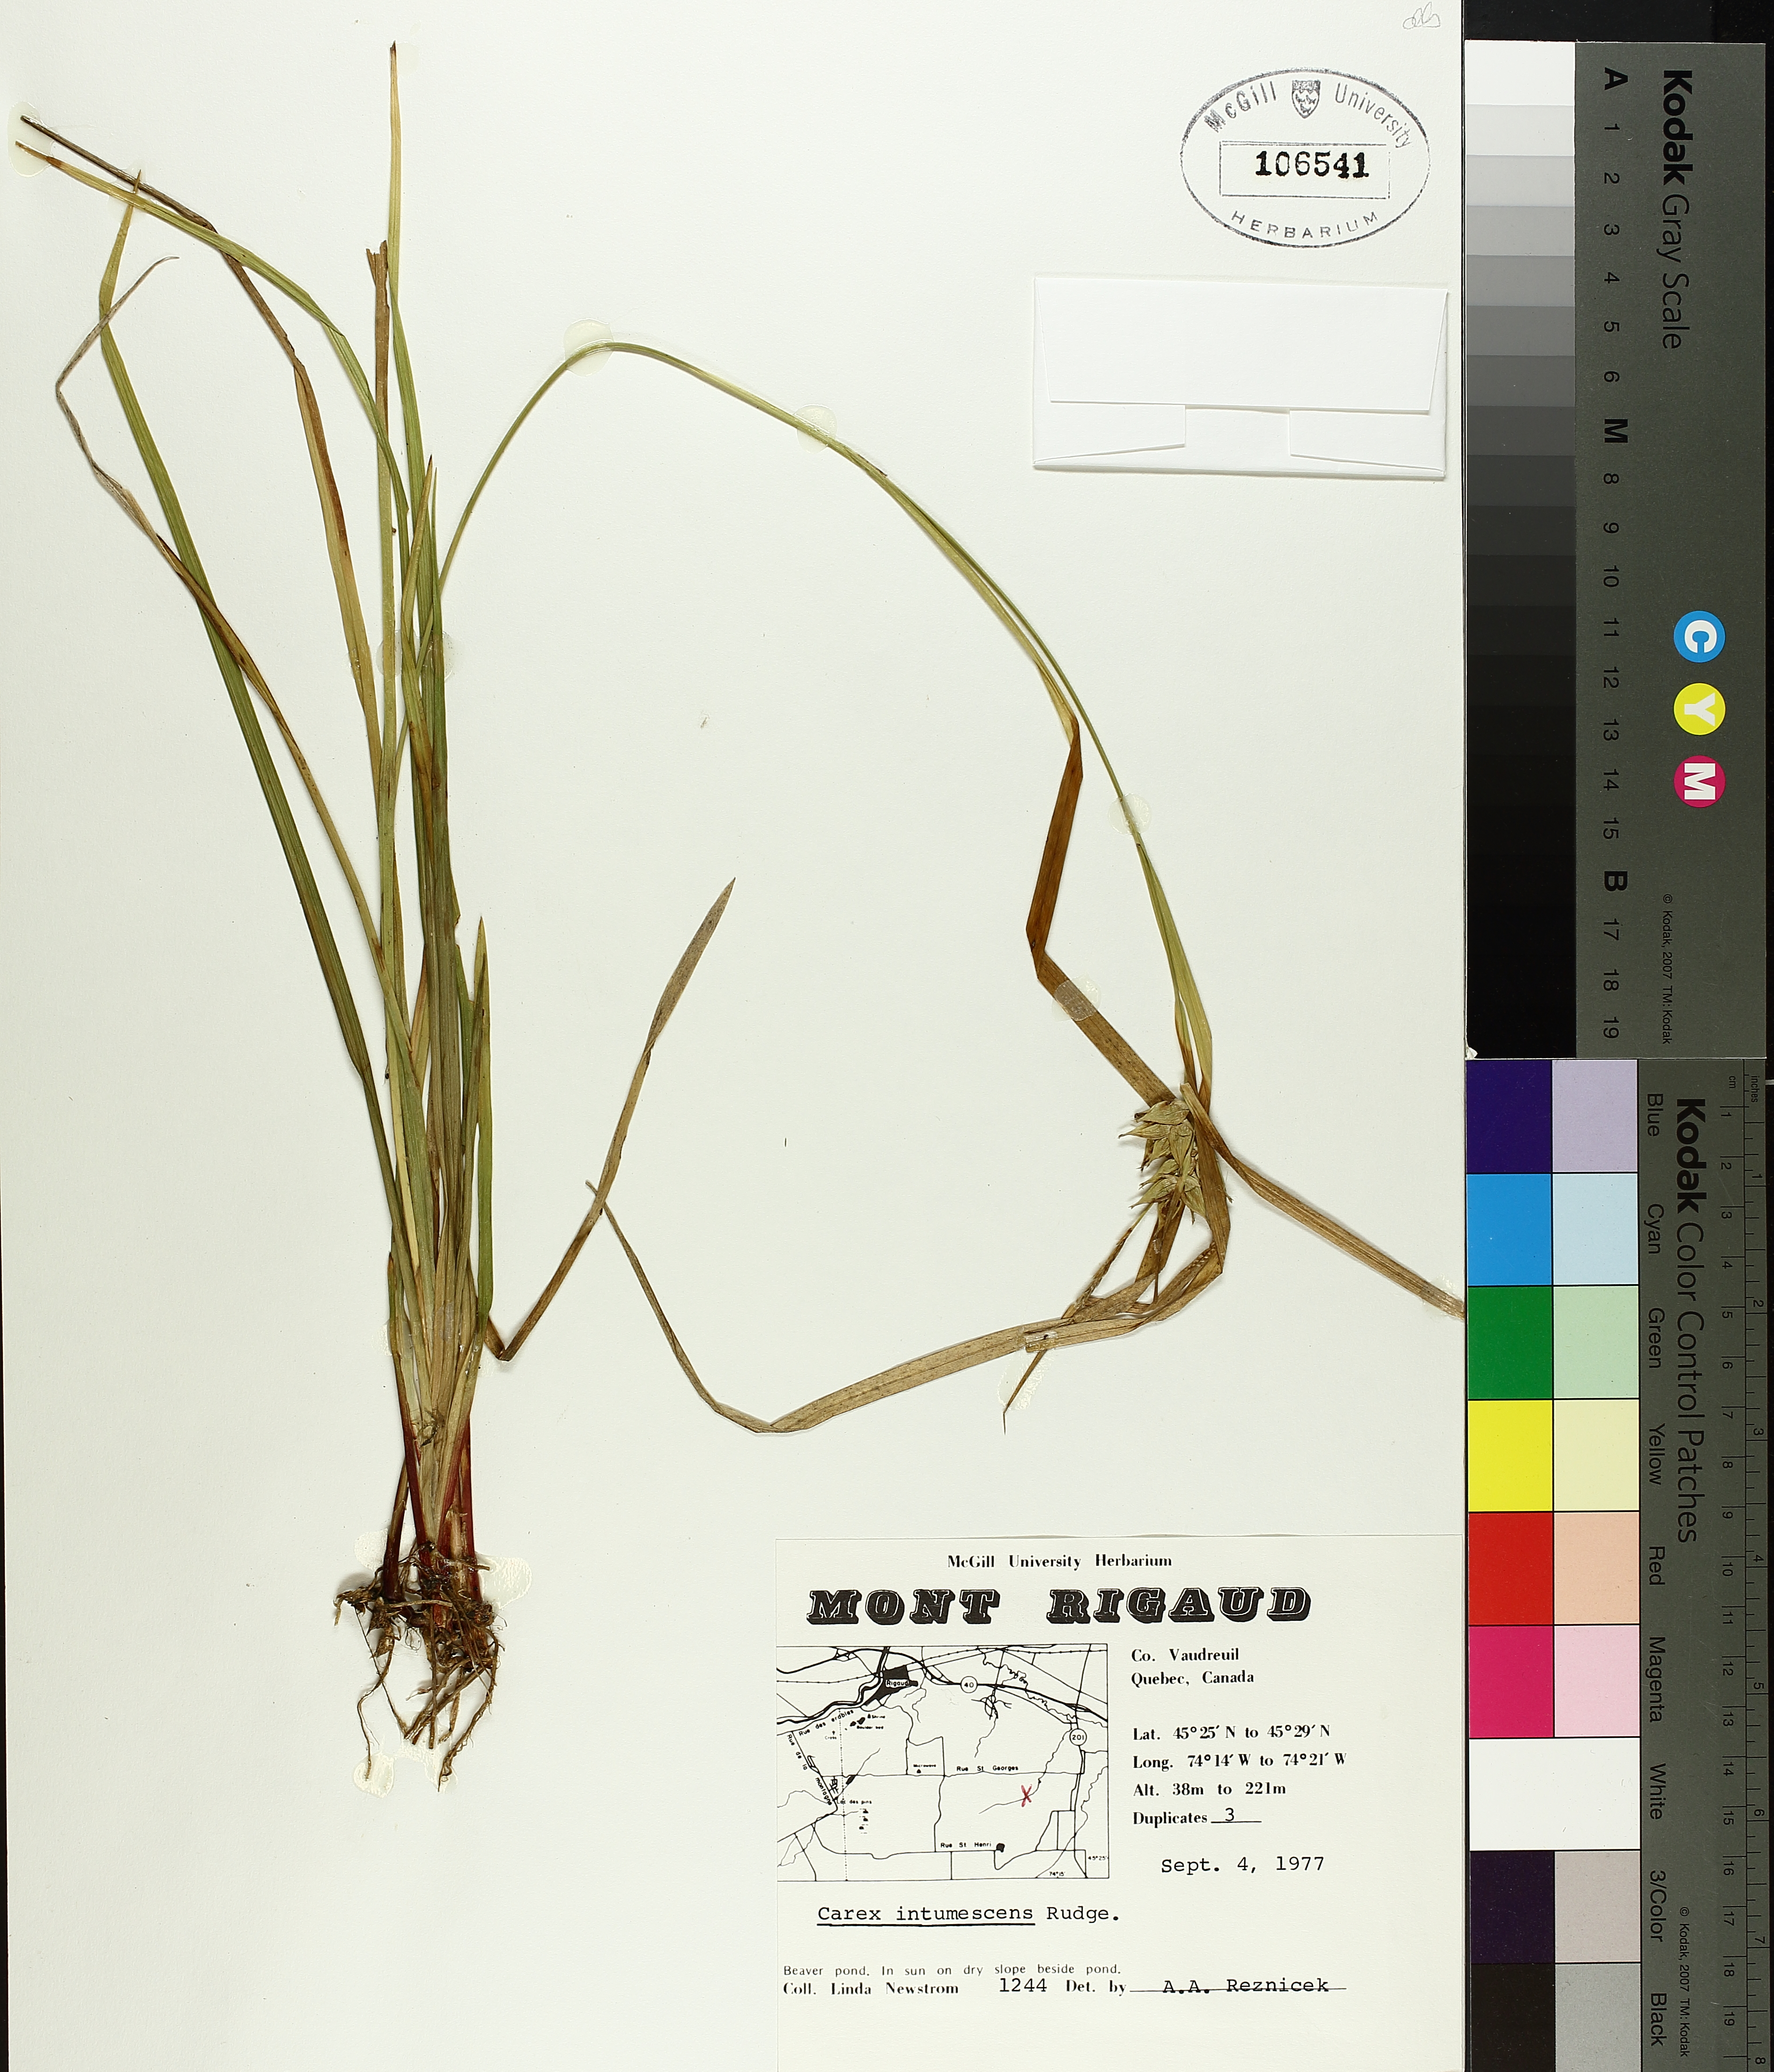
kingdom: Plantae
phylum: Tracheophyta
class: Liliopsida
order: Poales
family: Cyperaceae
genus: Carex
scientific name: Carex intumescens
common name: Greater bladder sedge
